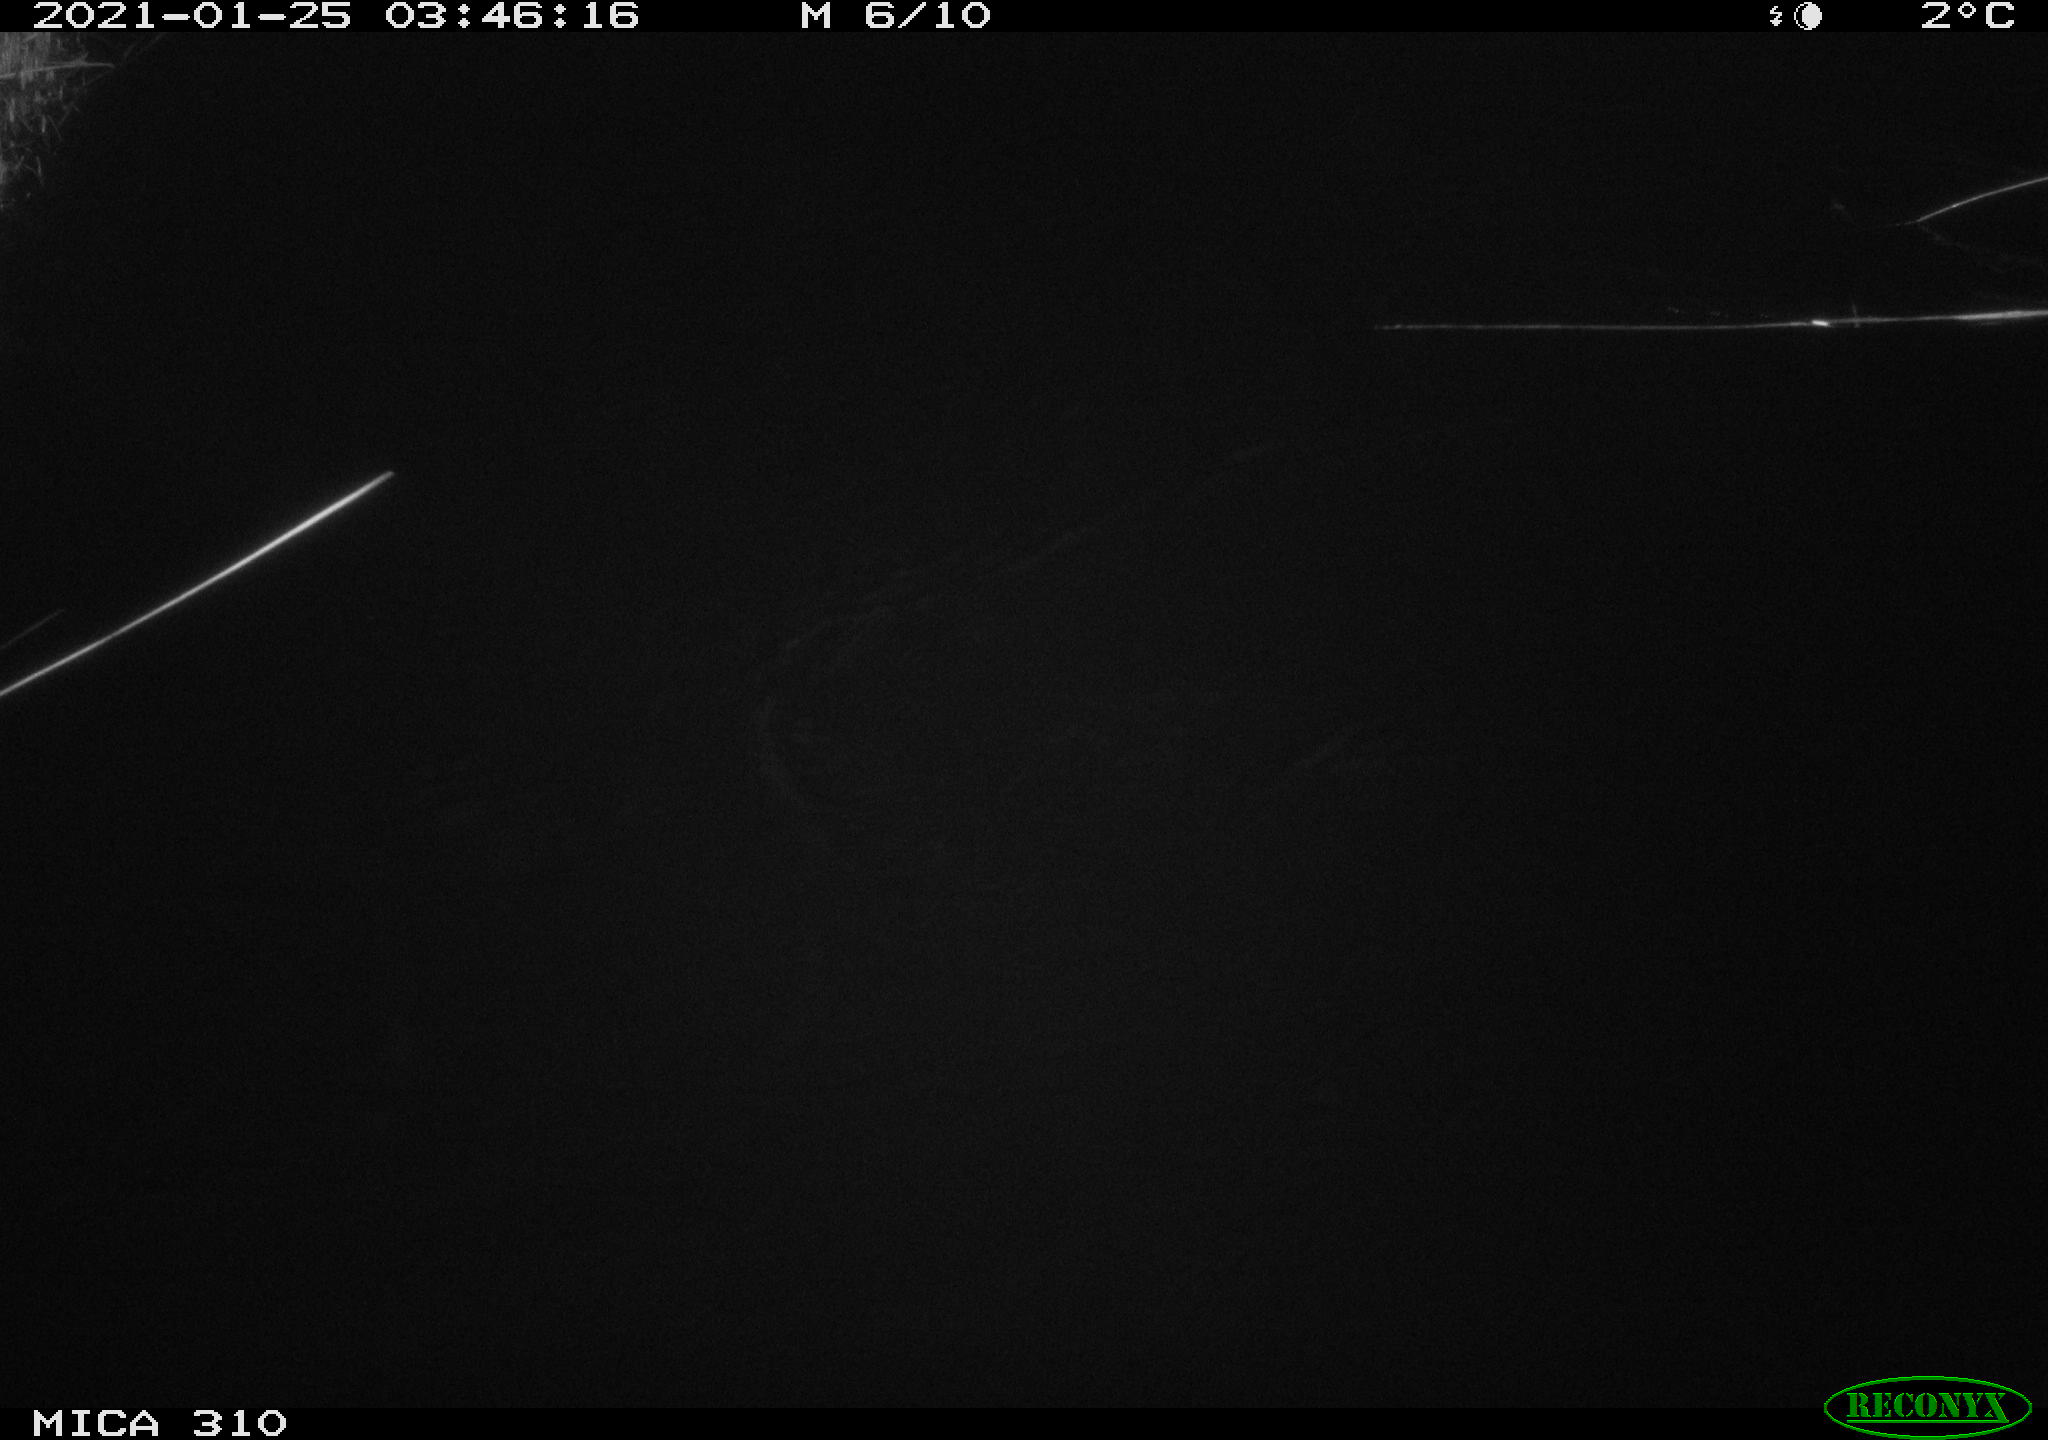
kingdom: Animalia
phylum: Chordata
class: Mammalia
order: Rodentia
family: Muridae
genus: Rattus
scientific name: Rattus norvegicus
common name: Brown rat
